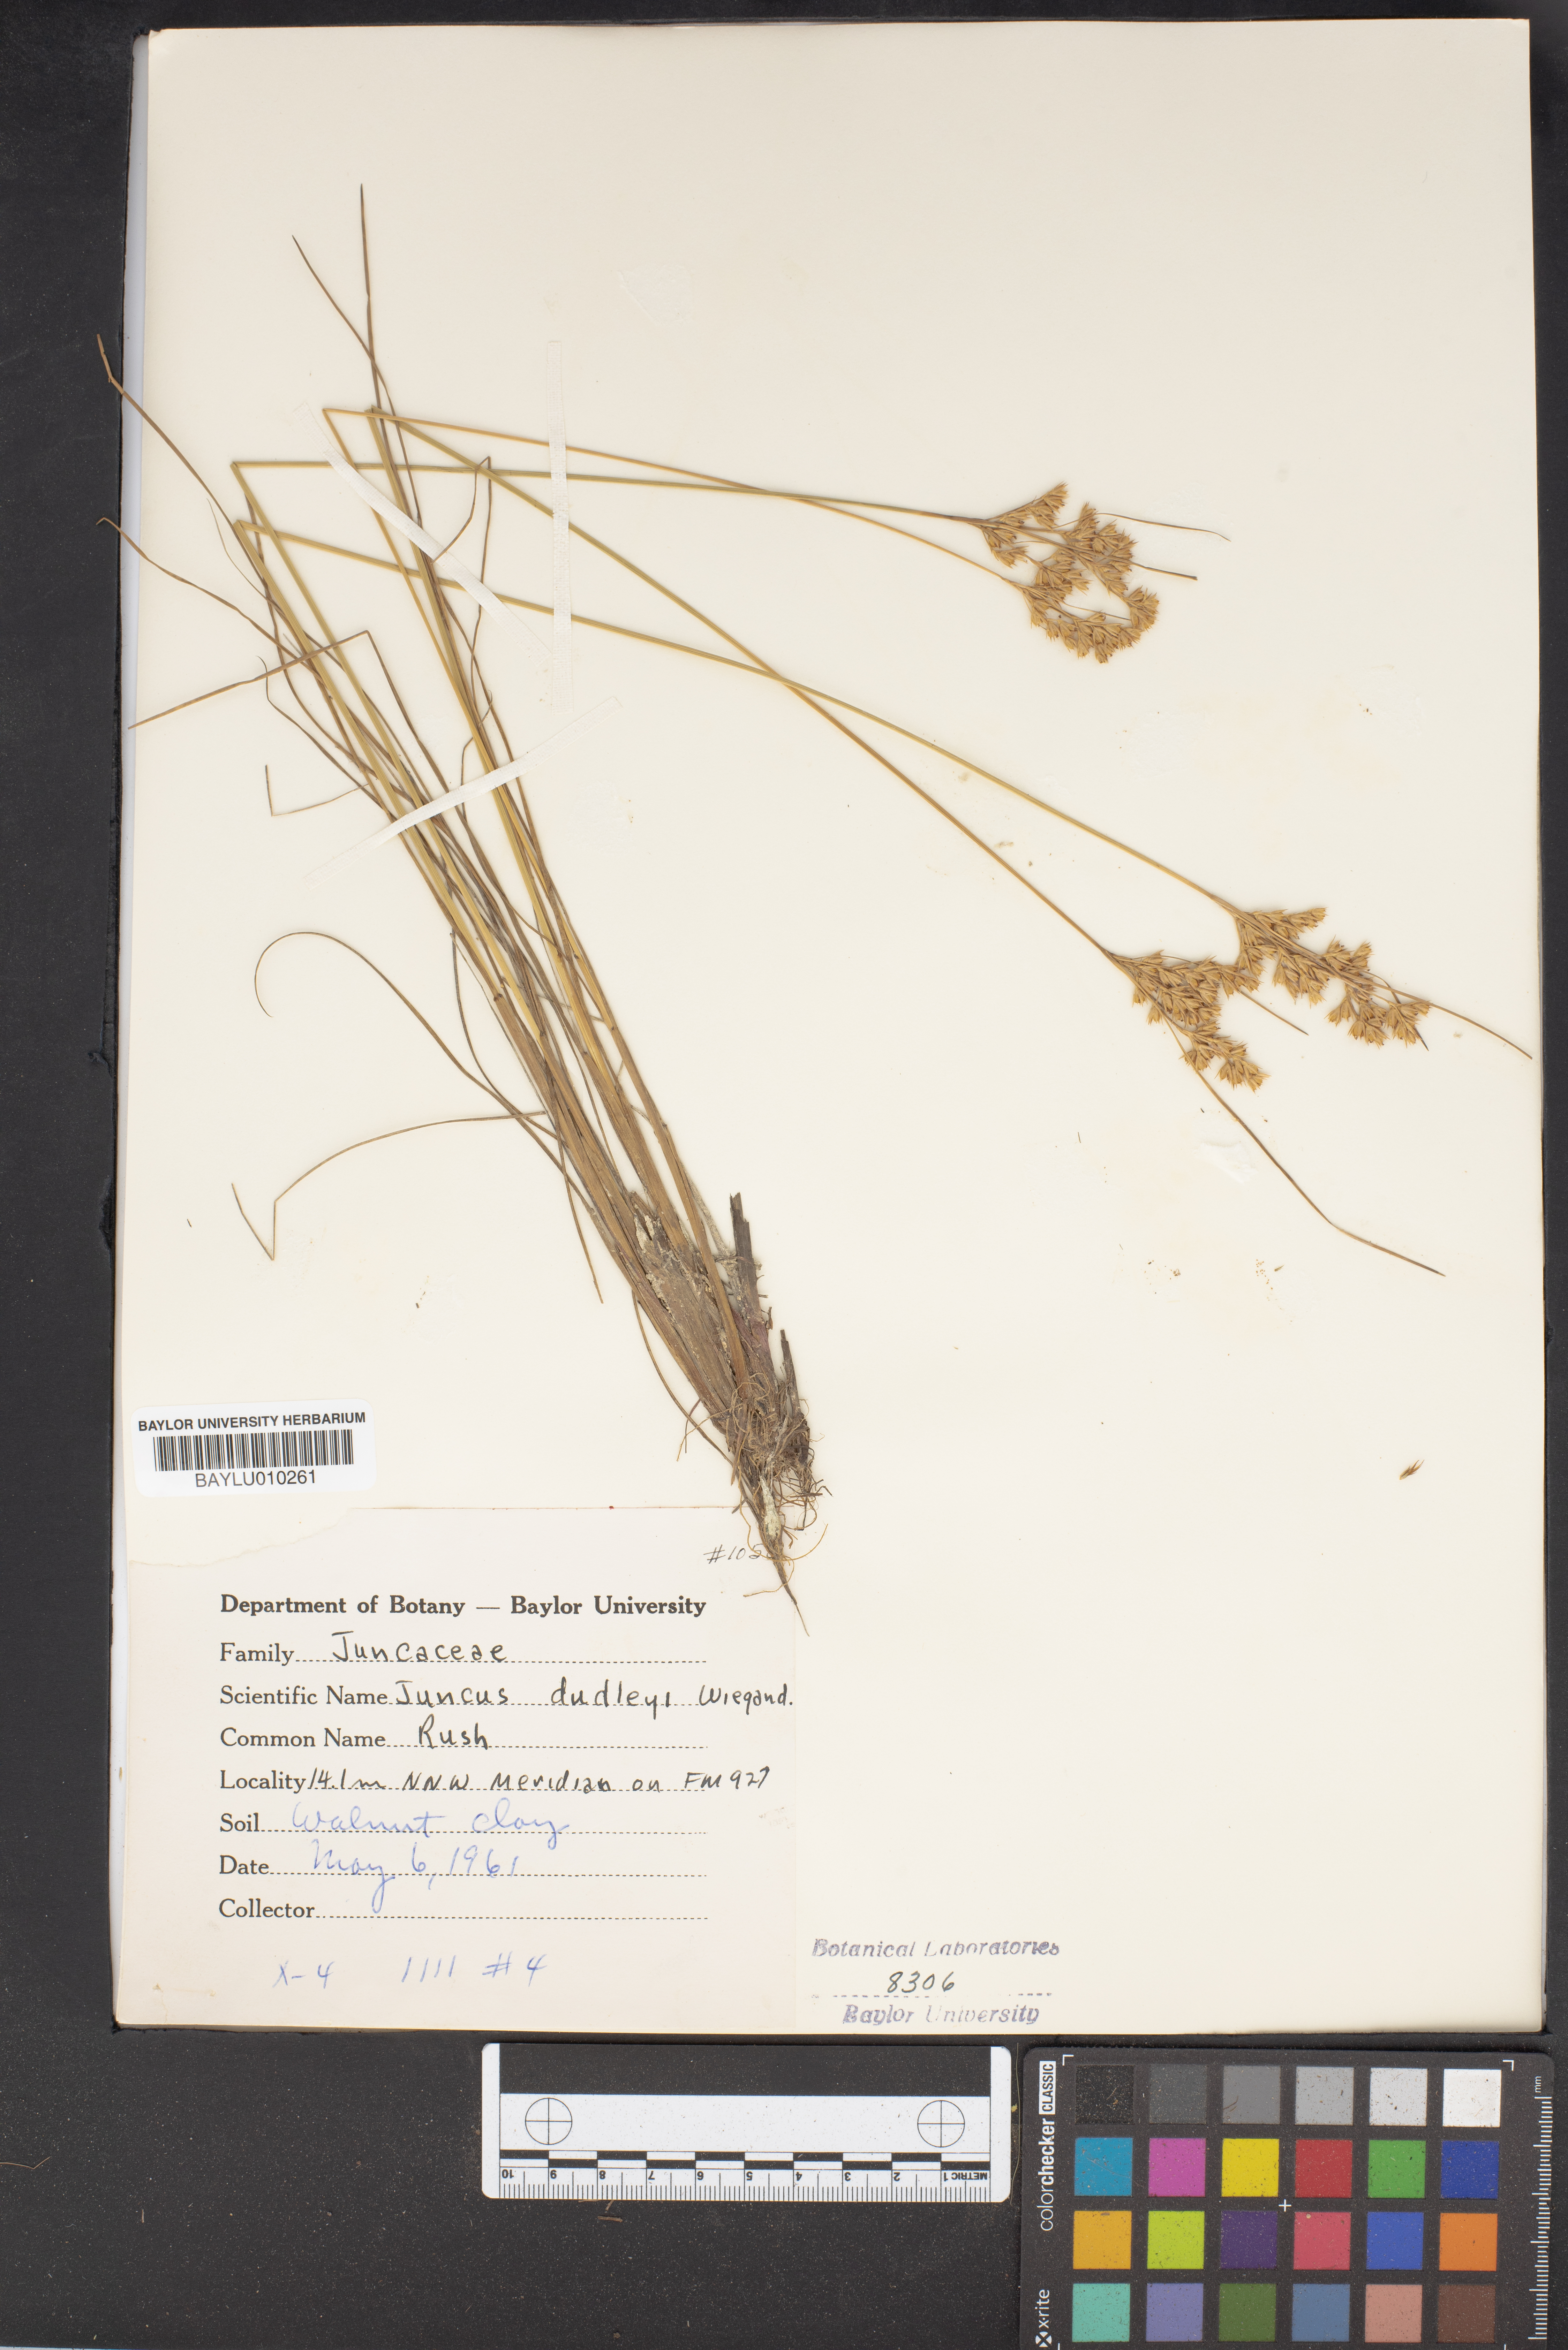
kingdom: Plantae
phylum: Tracheophyta
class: Liliopsida
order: Poales
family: Juncaceae
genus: Juncus
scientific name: Juncus dudleyi
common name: Dudley's rush
